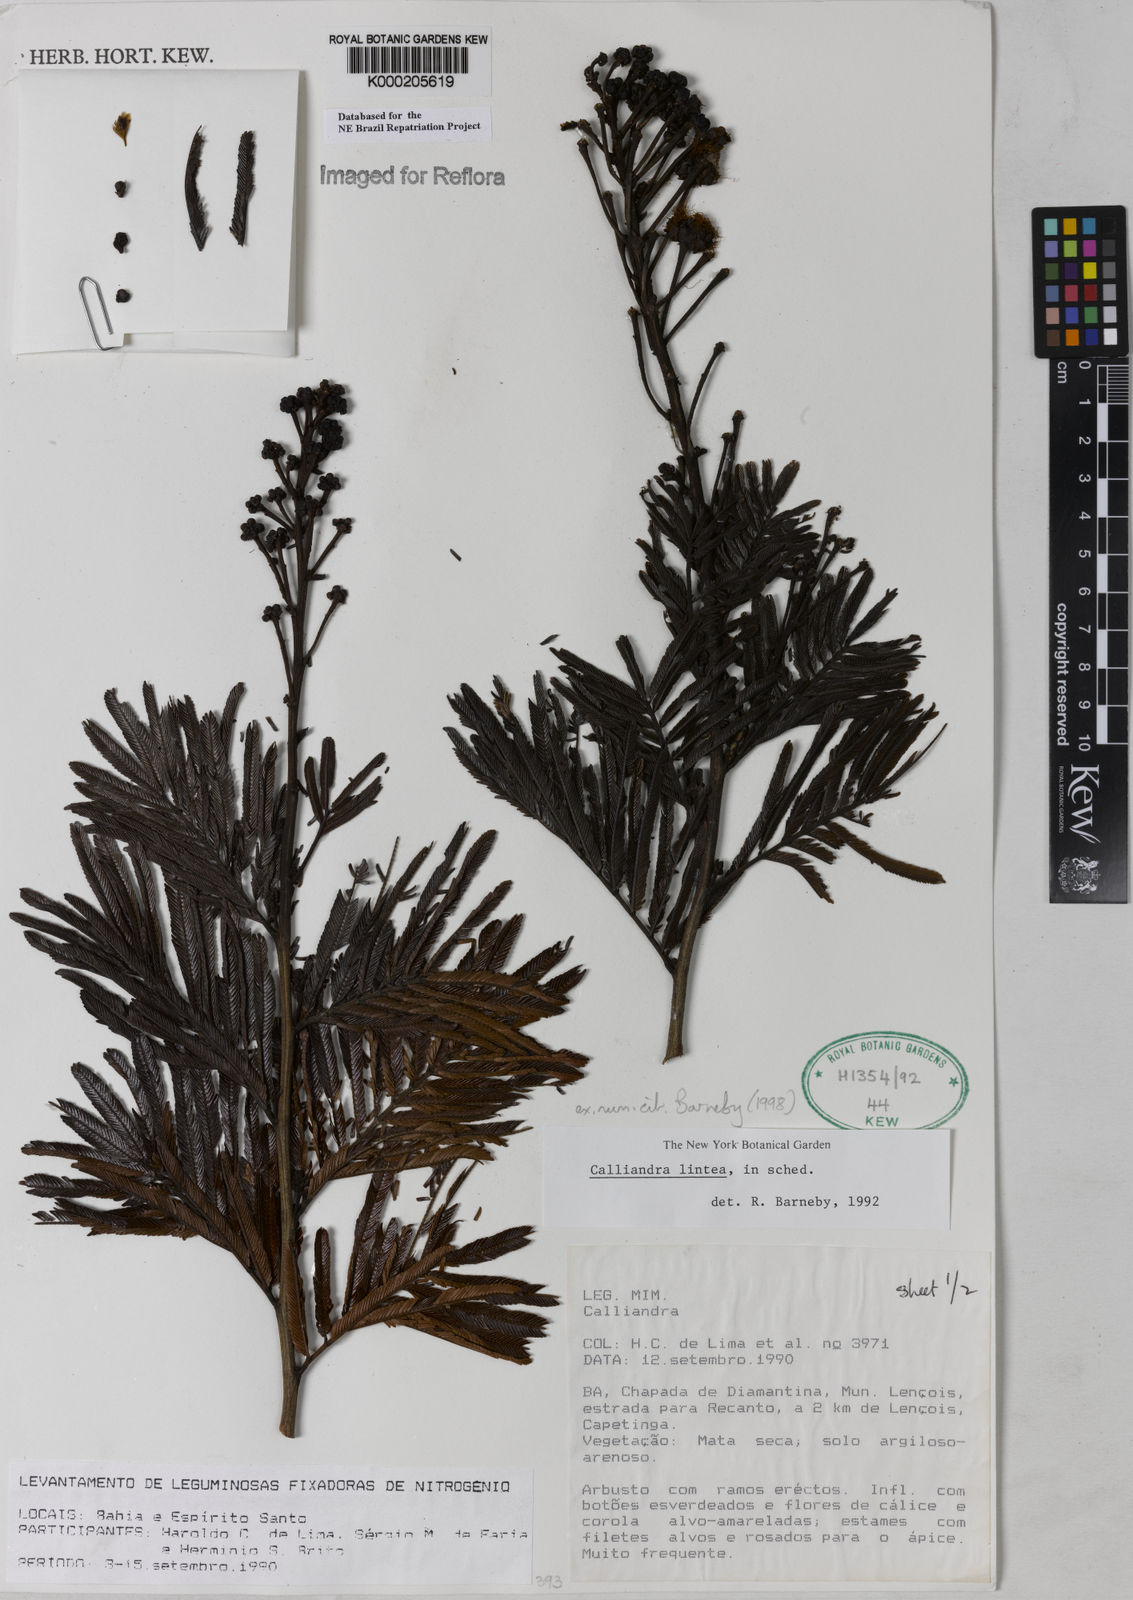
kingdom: Plantae
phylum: Tracheophyta
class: Magnoliopsida
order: Fabales
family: Fabaceae
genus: Calliandra
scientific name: Calliandra lintea
